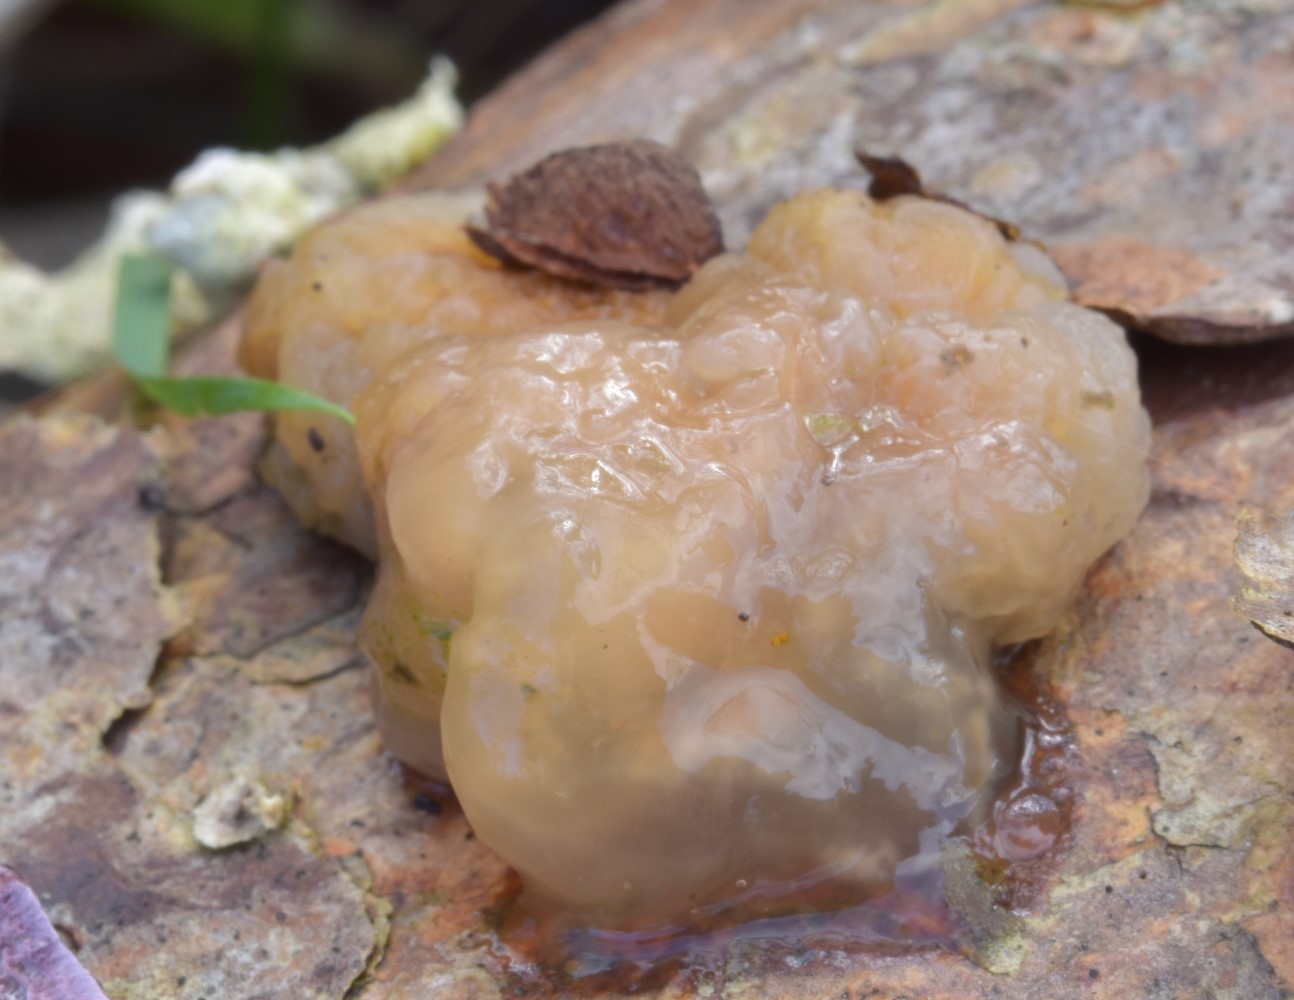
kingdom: Fungi
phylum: Basidiomycota
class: Tremellomycetes
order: Tremellales
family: Naemateliaceae
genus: Naematelia
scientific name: Naematelia encephala
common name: fyrre-bævresvamp
